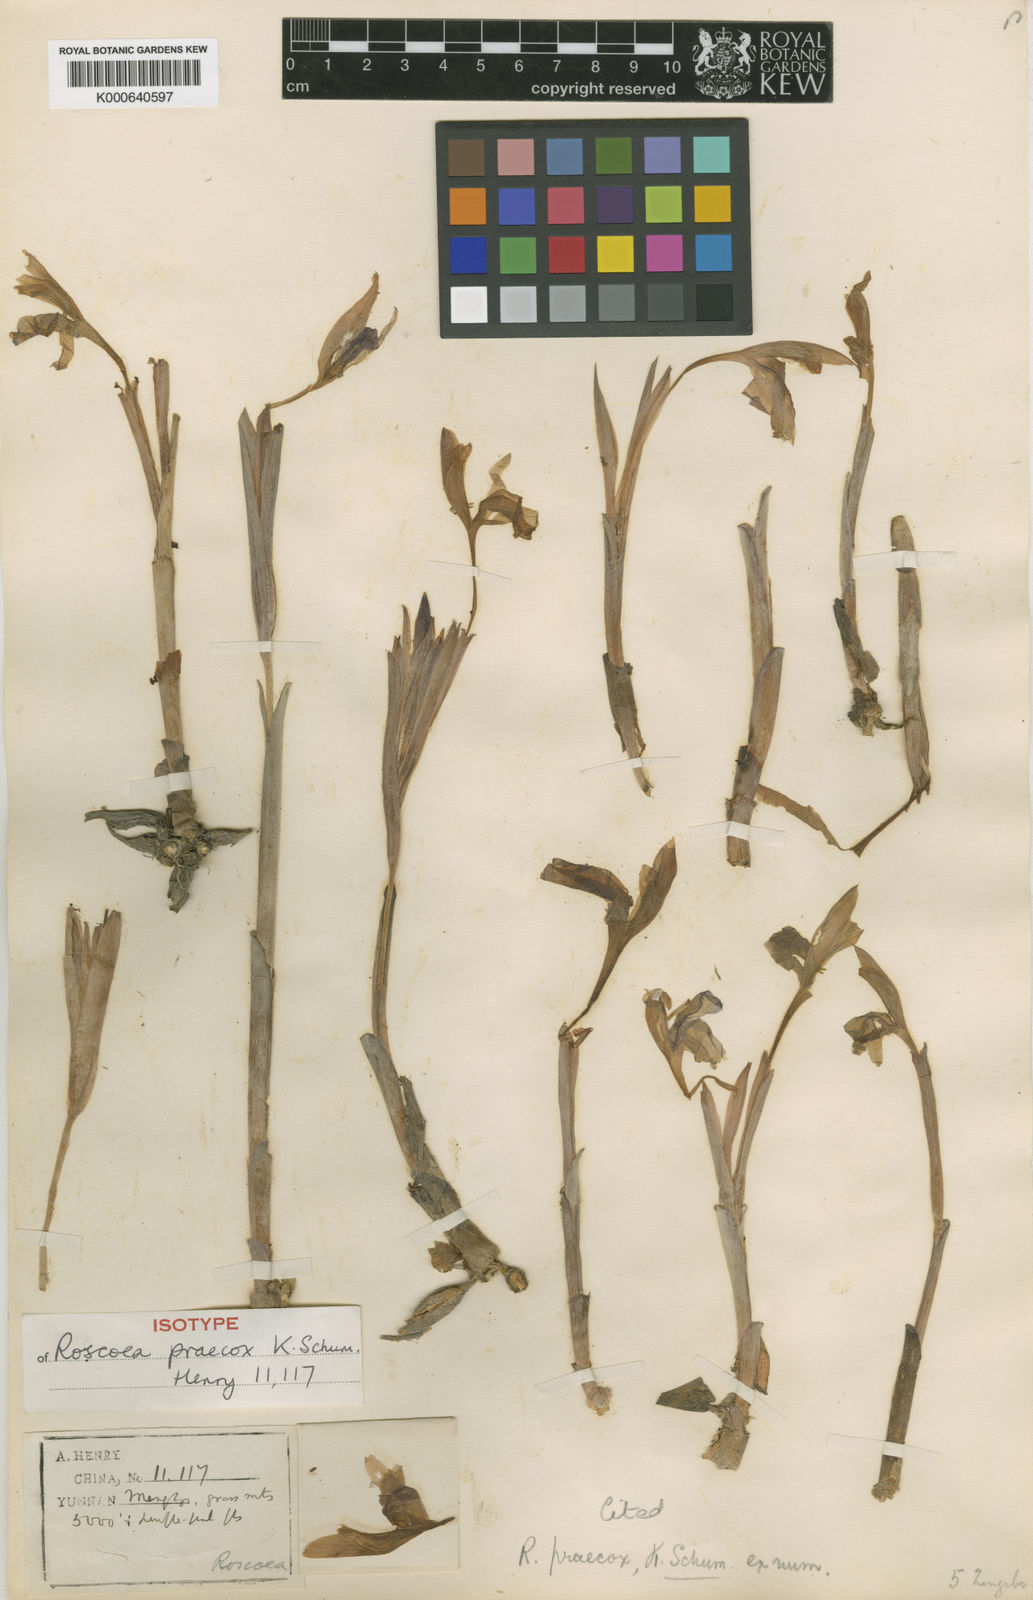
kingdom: Plantae
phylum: Tracheophyta
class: Liliopsida
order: Zingiberales
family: Zingiberaceae
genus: Roscoea
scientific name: Roscoea praecox
